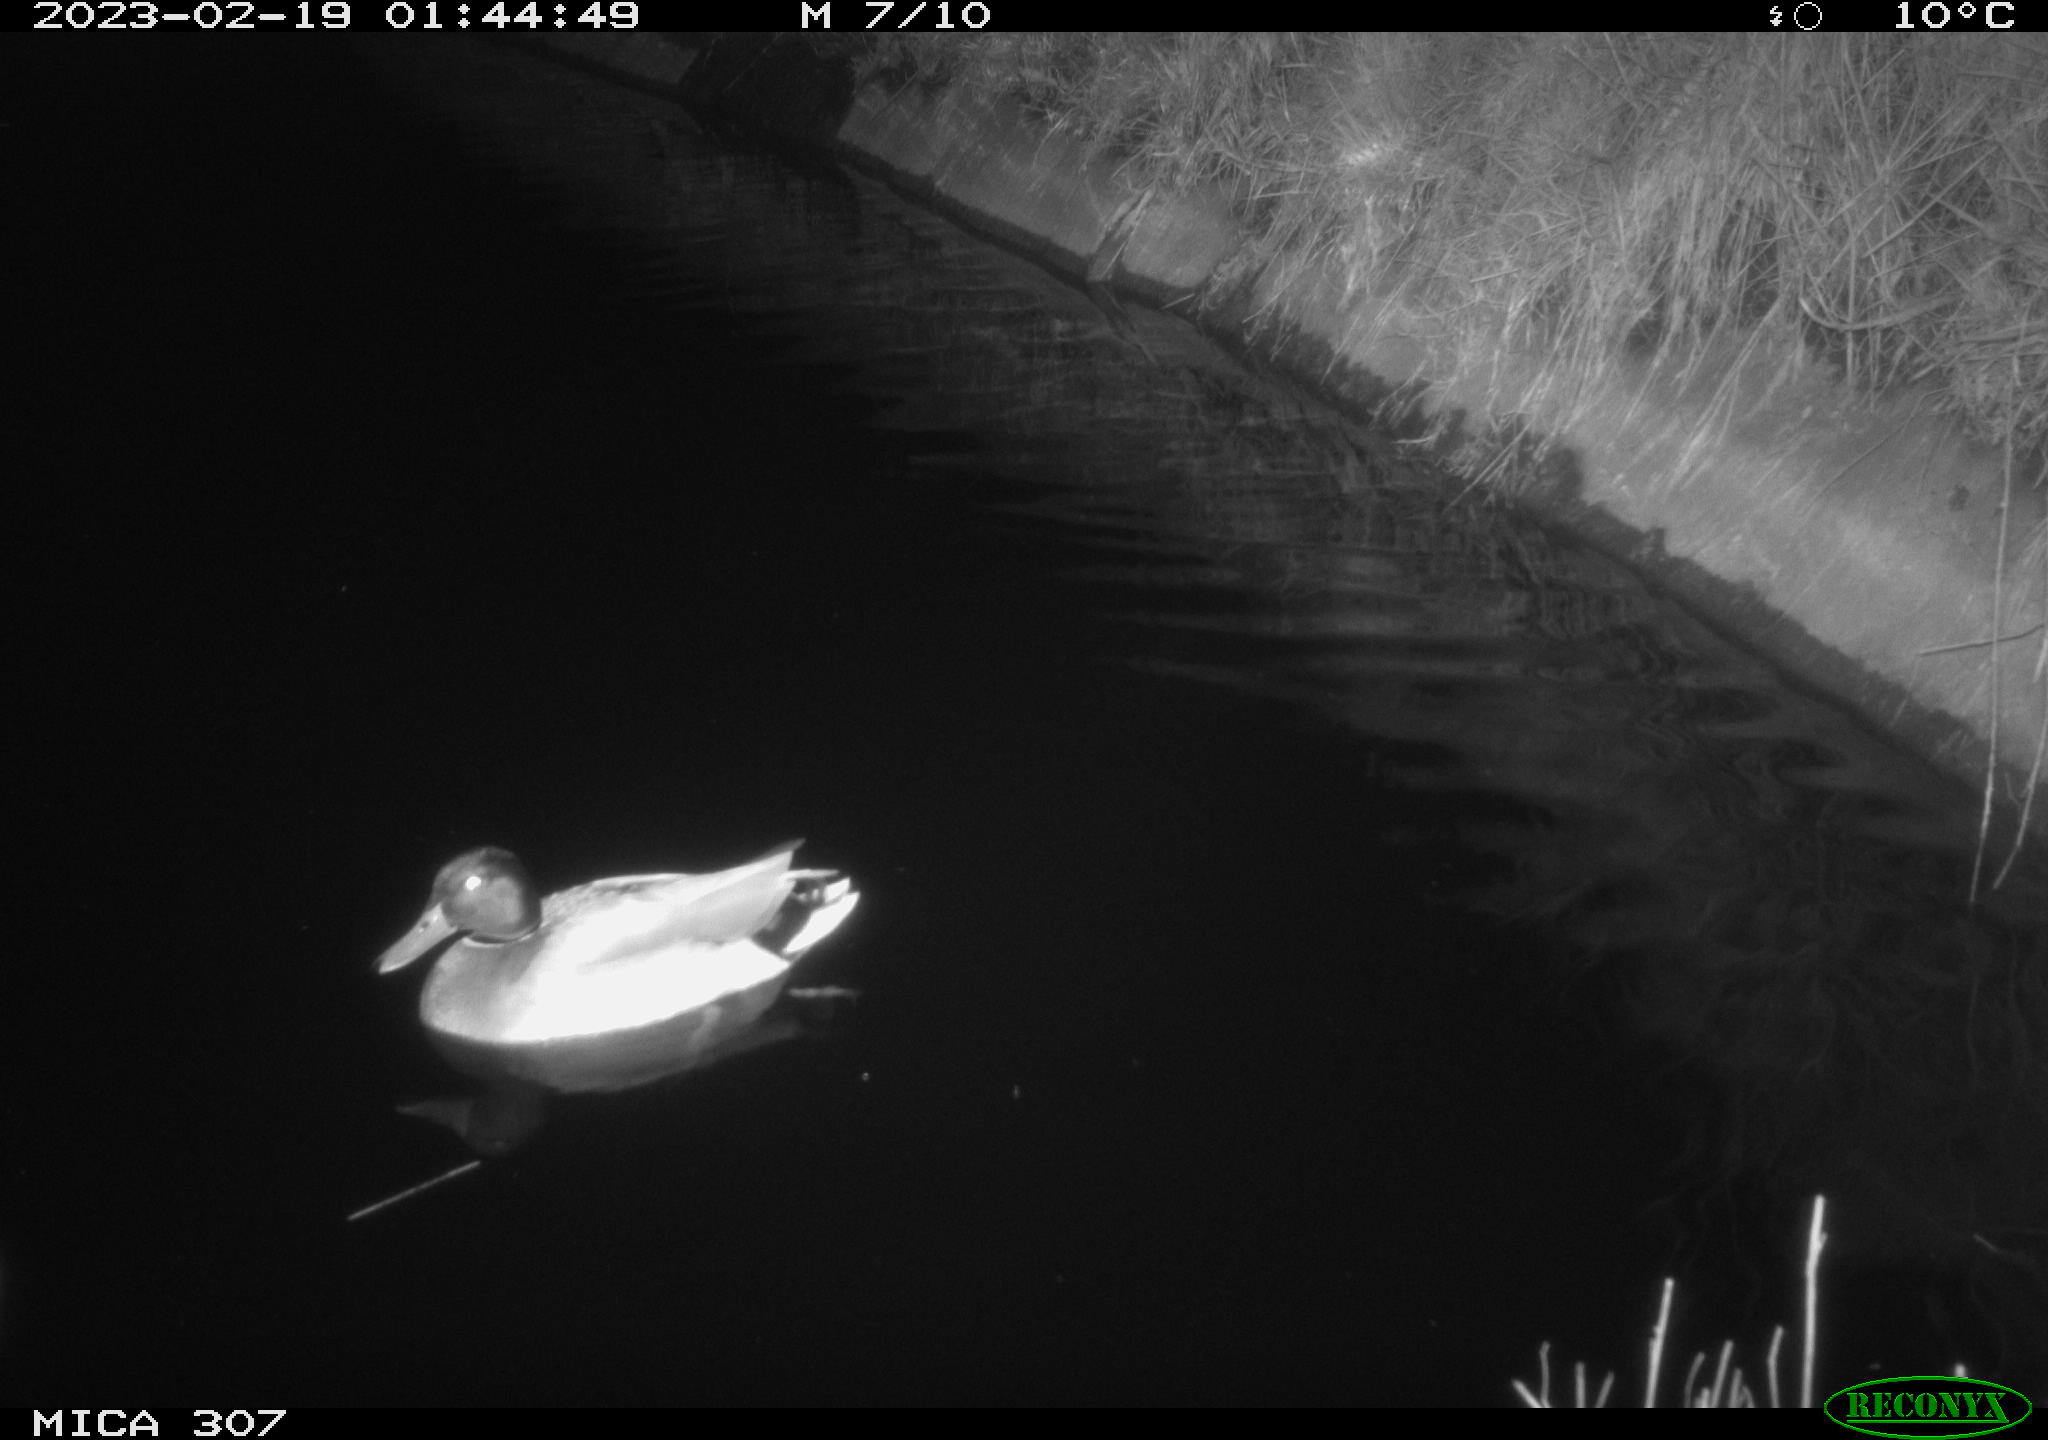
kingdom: Animalia
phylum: Chordata
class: Aves
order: Anseriformes
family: Anatidae
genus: Anas
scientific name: Anas
